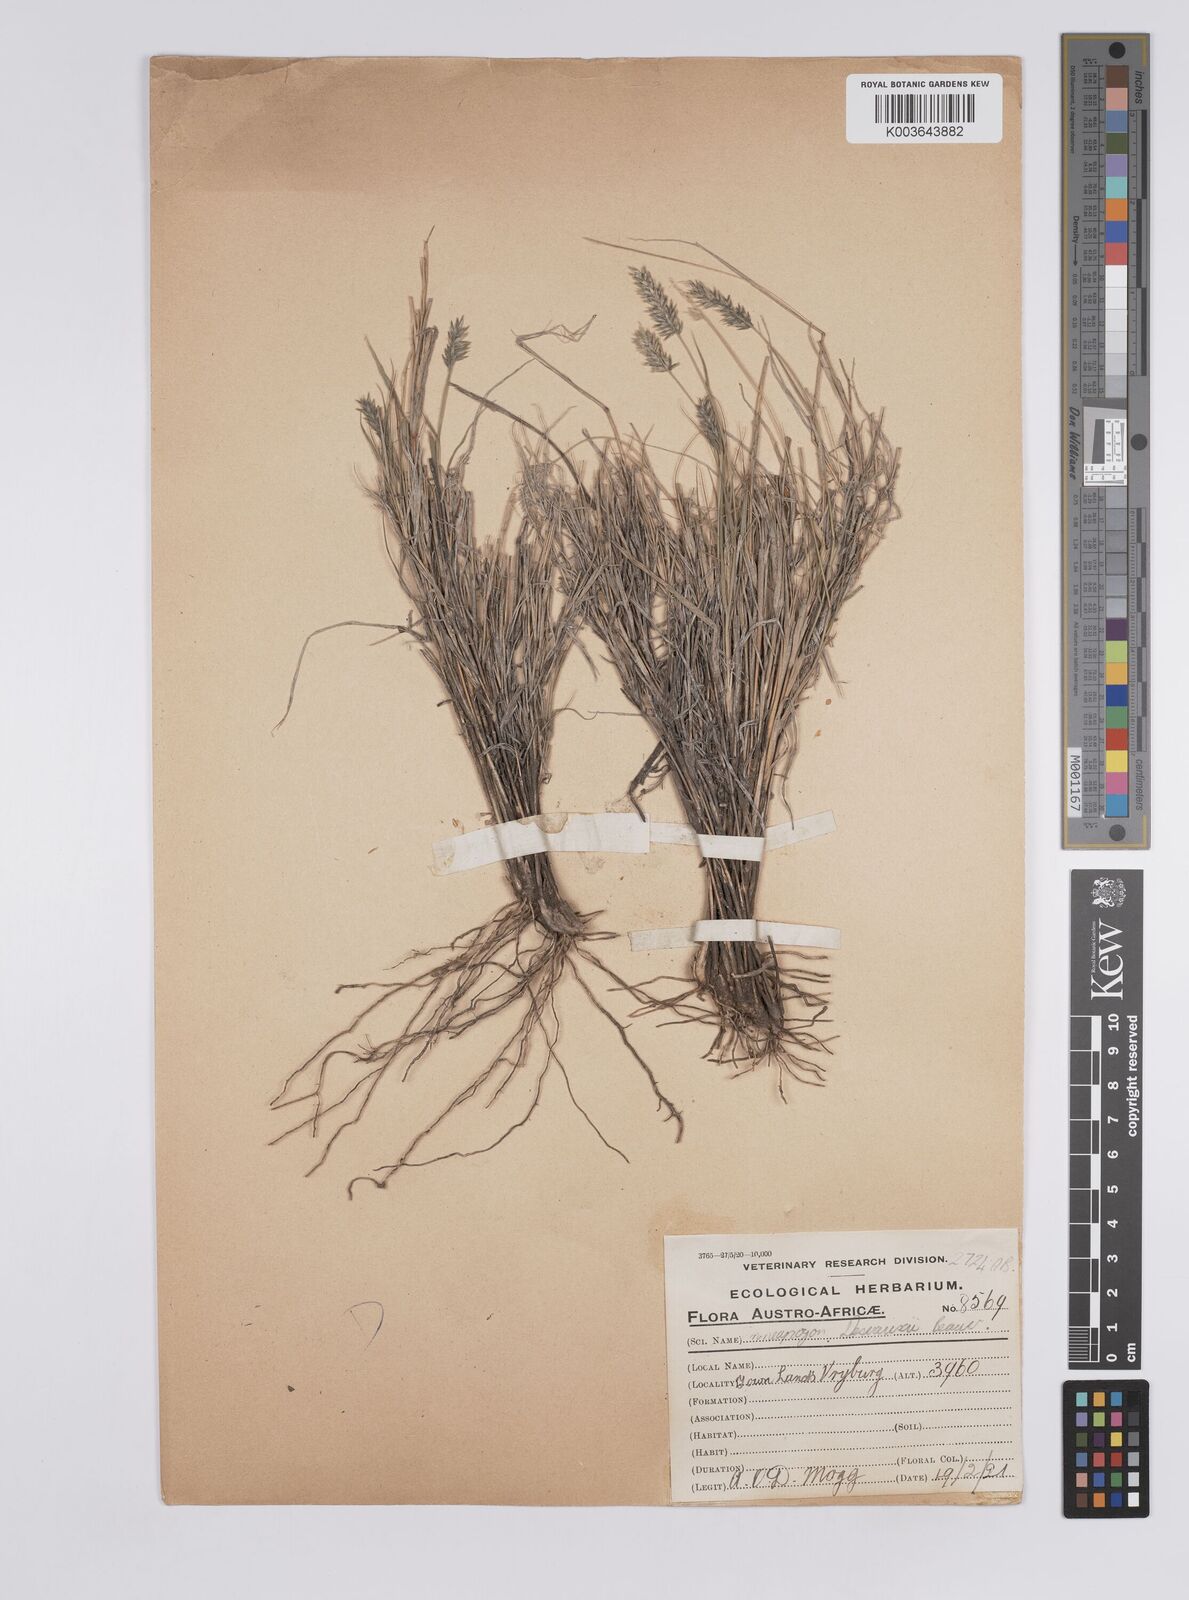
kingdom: Plantae
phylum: Tracheophyta
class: Liliopsida
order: Poales
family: Poaceae
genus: Enneapogon
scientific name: Enneapogon desvauxii
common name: Feather pappus grass
